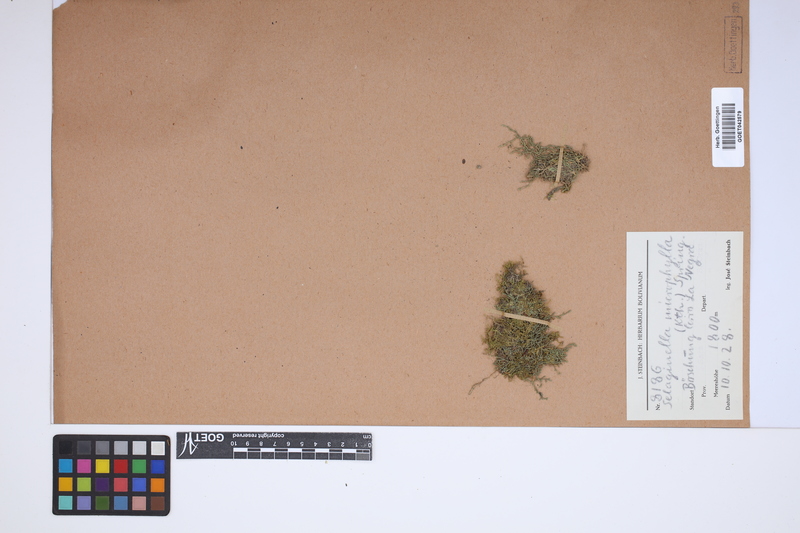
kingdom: Plantae
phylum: Tracheophyta
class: Lycopodiopsida
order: Selaginellales
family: Selaginellaceae
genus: Selaginella
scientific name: Selaginella microphylla
